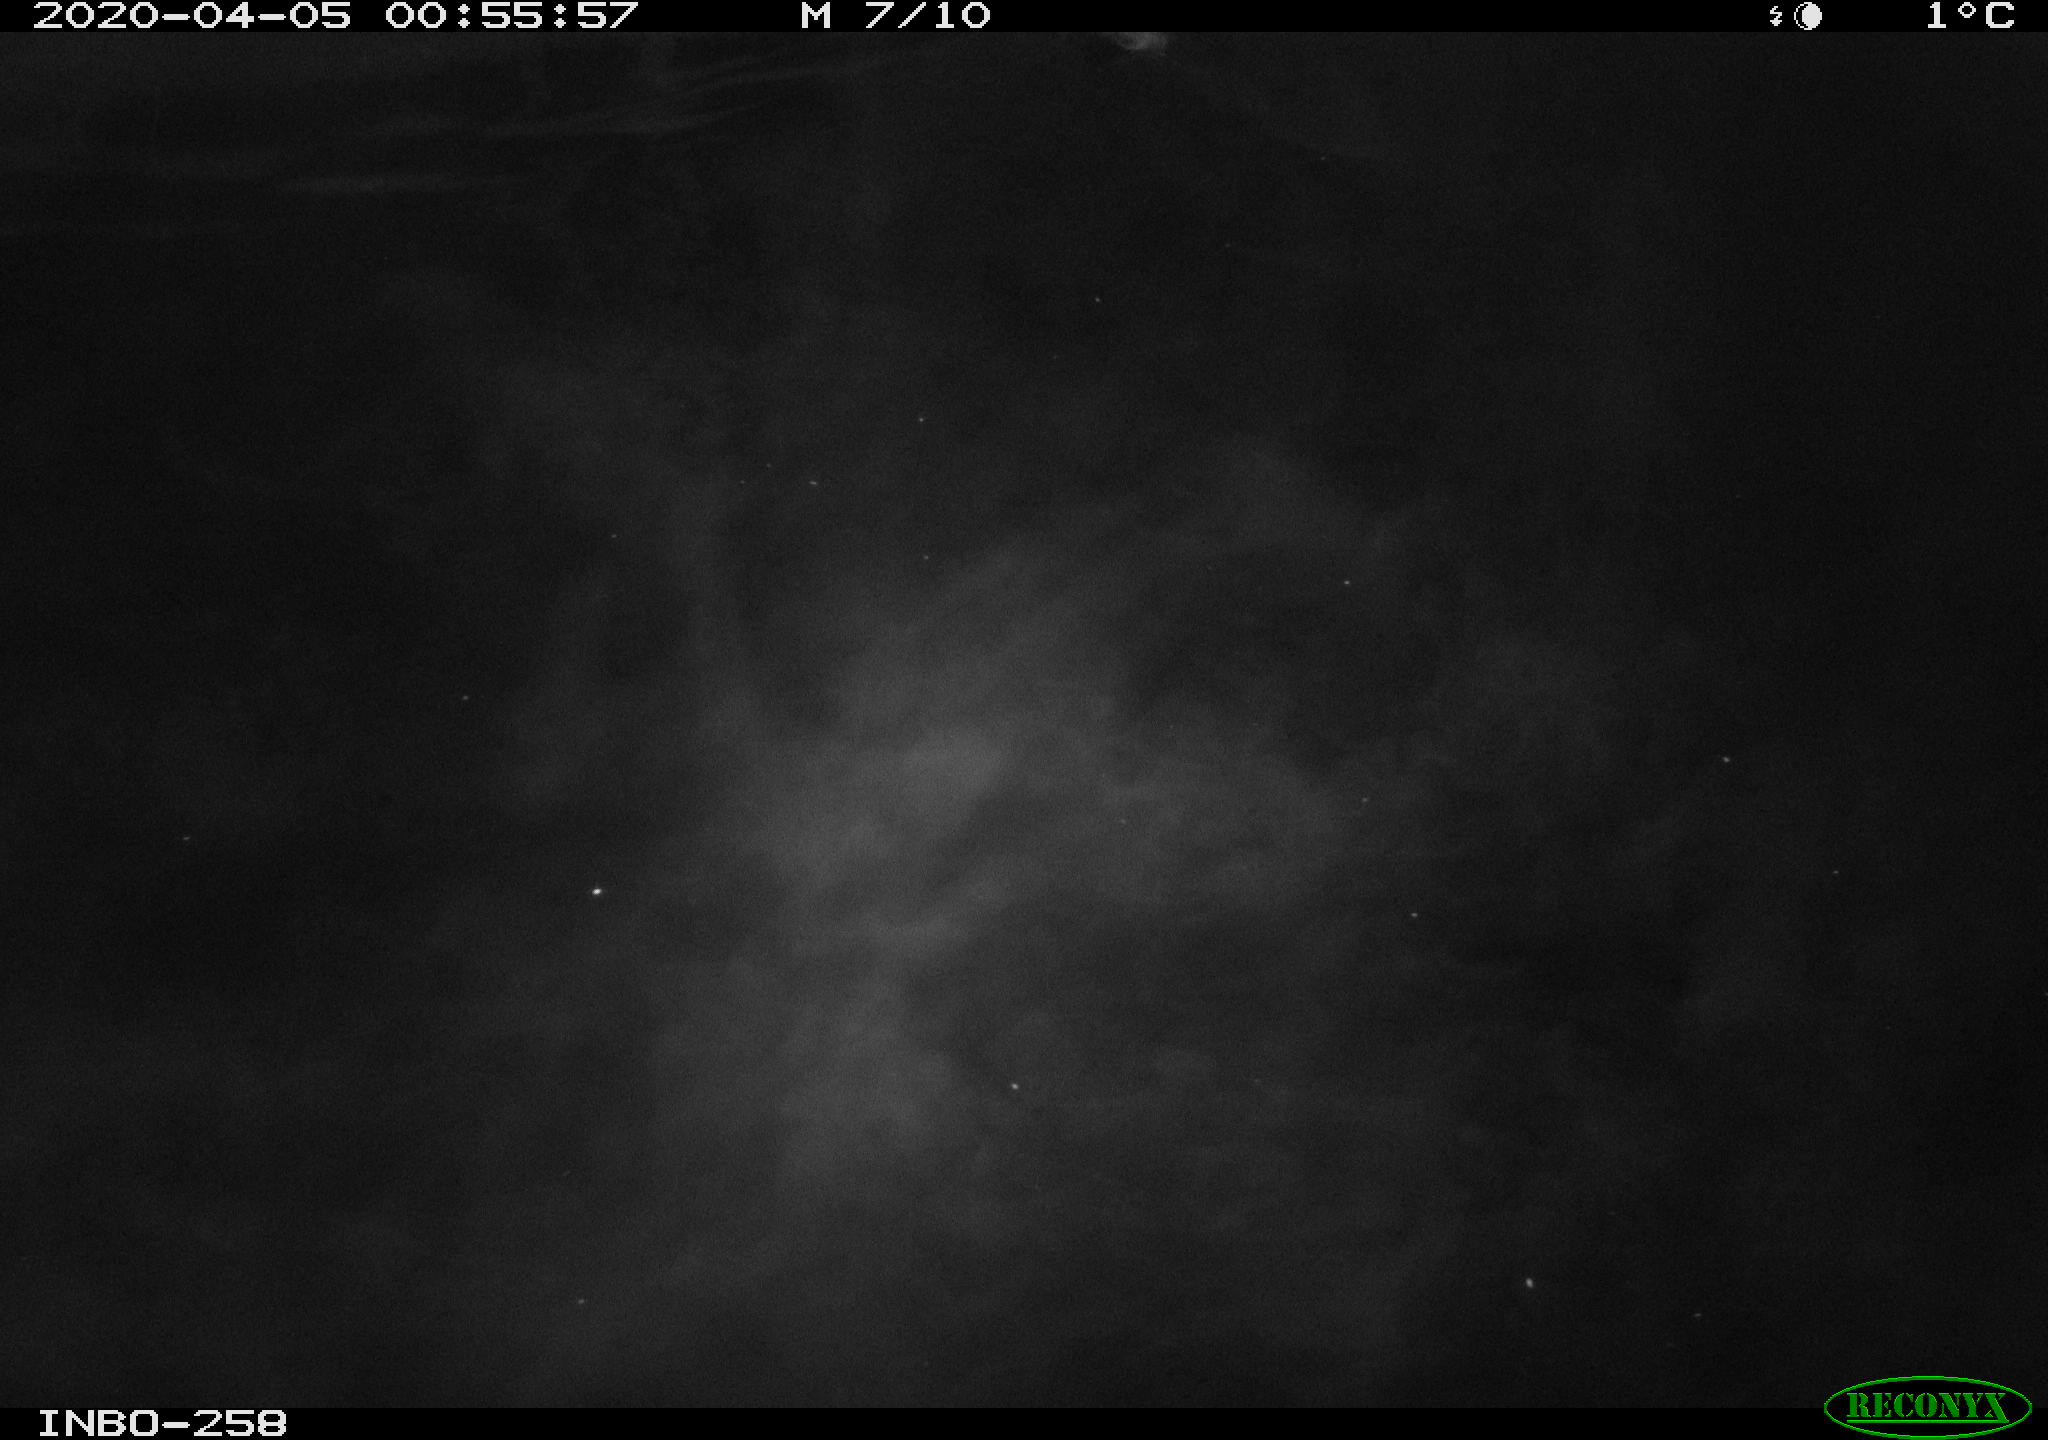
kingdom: Animalia
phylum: Chordata
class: Aves
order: Anseriformes
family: Anatidae
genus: Anas
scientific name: Anas platyrhynchos
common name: Mallard
